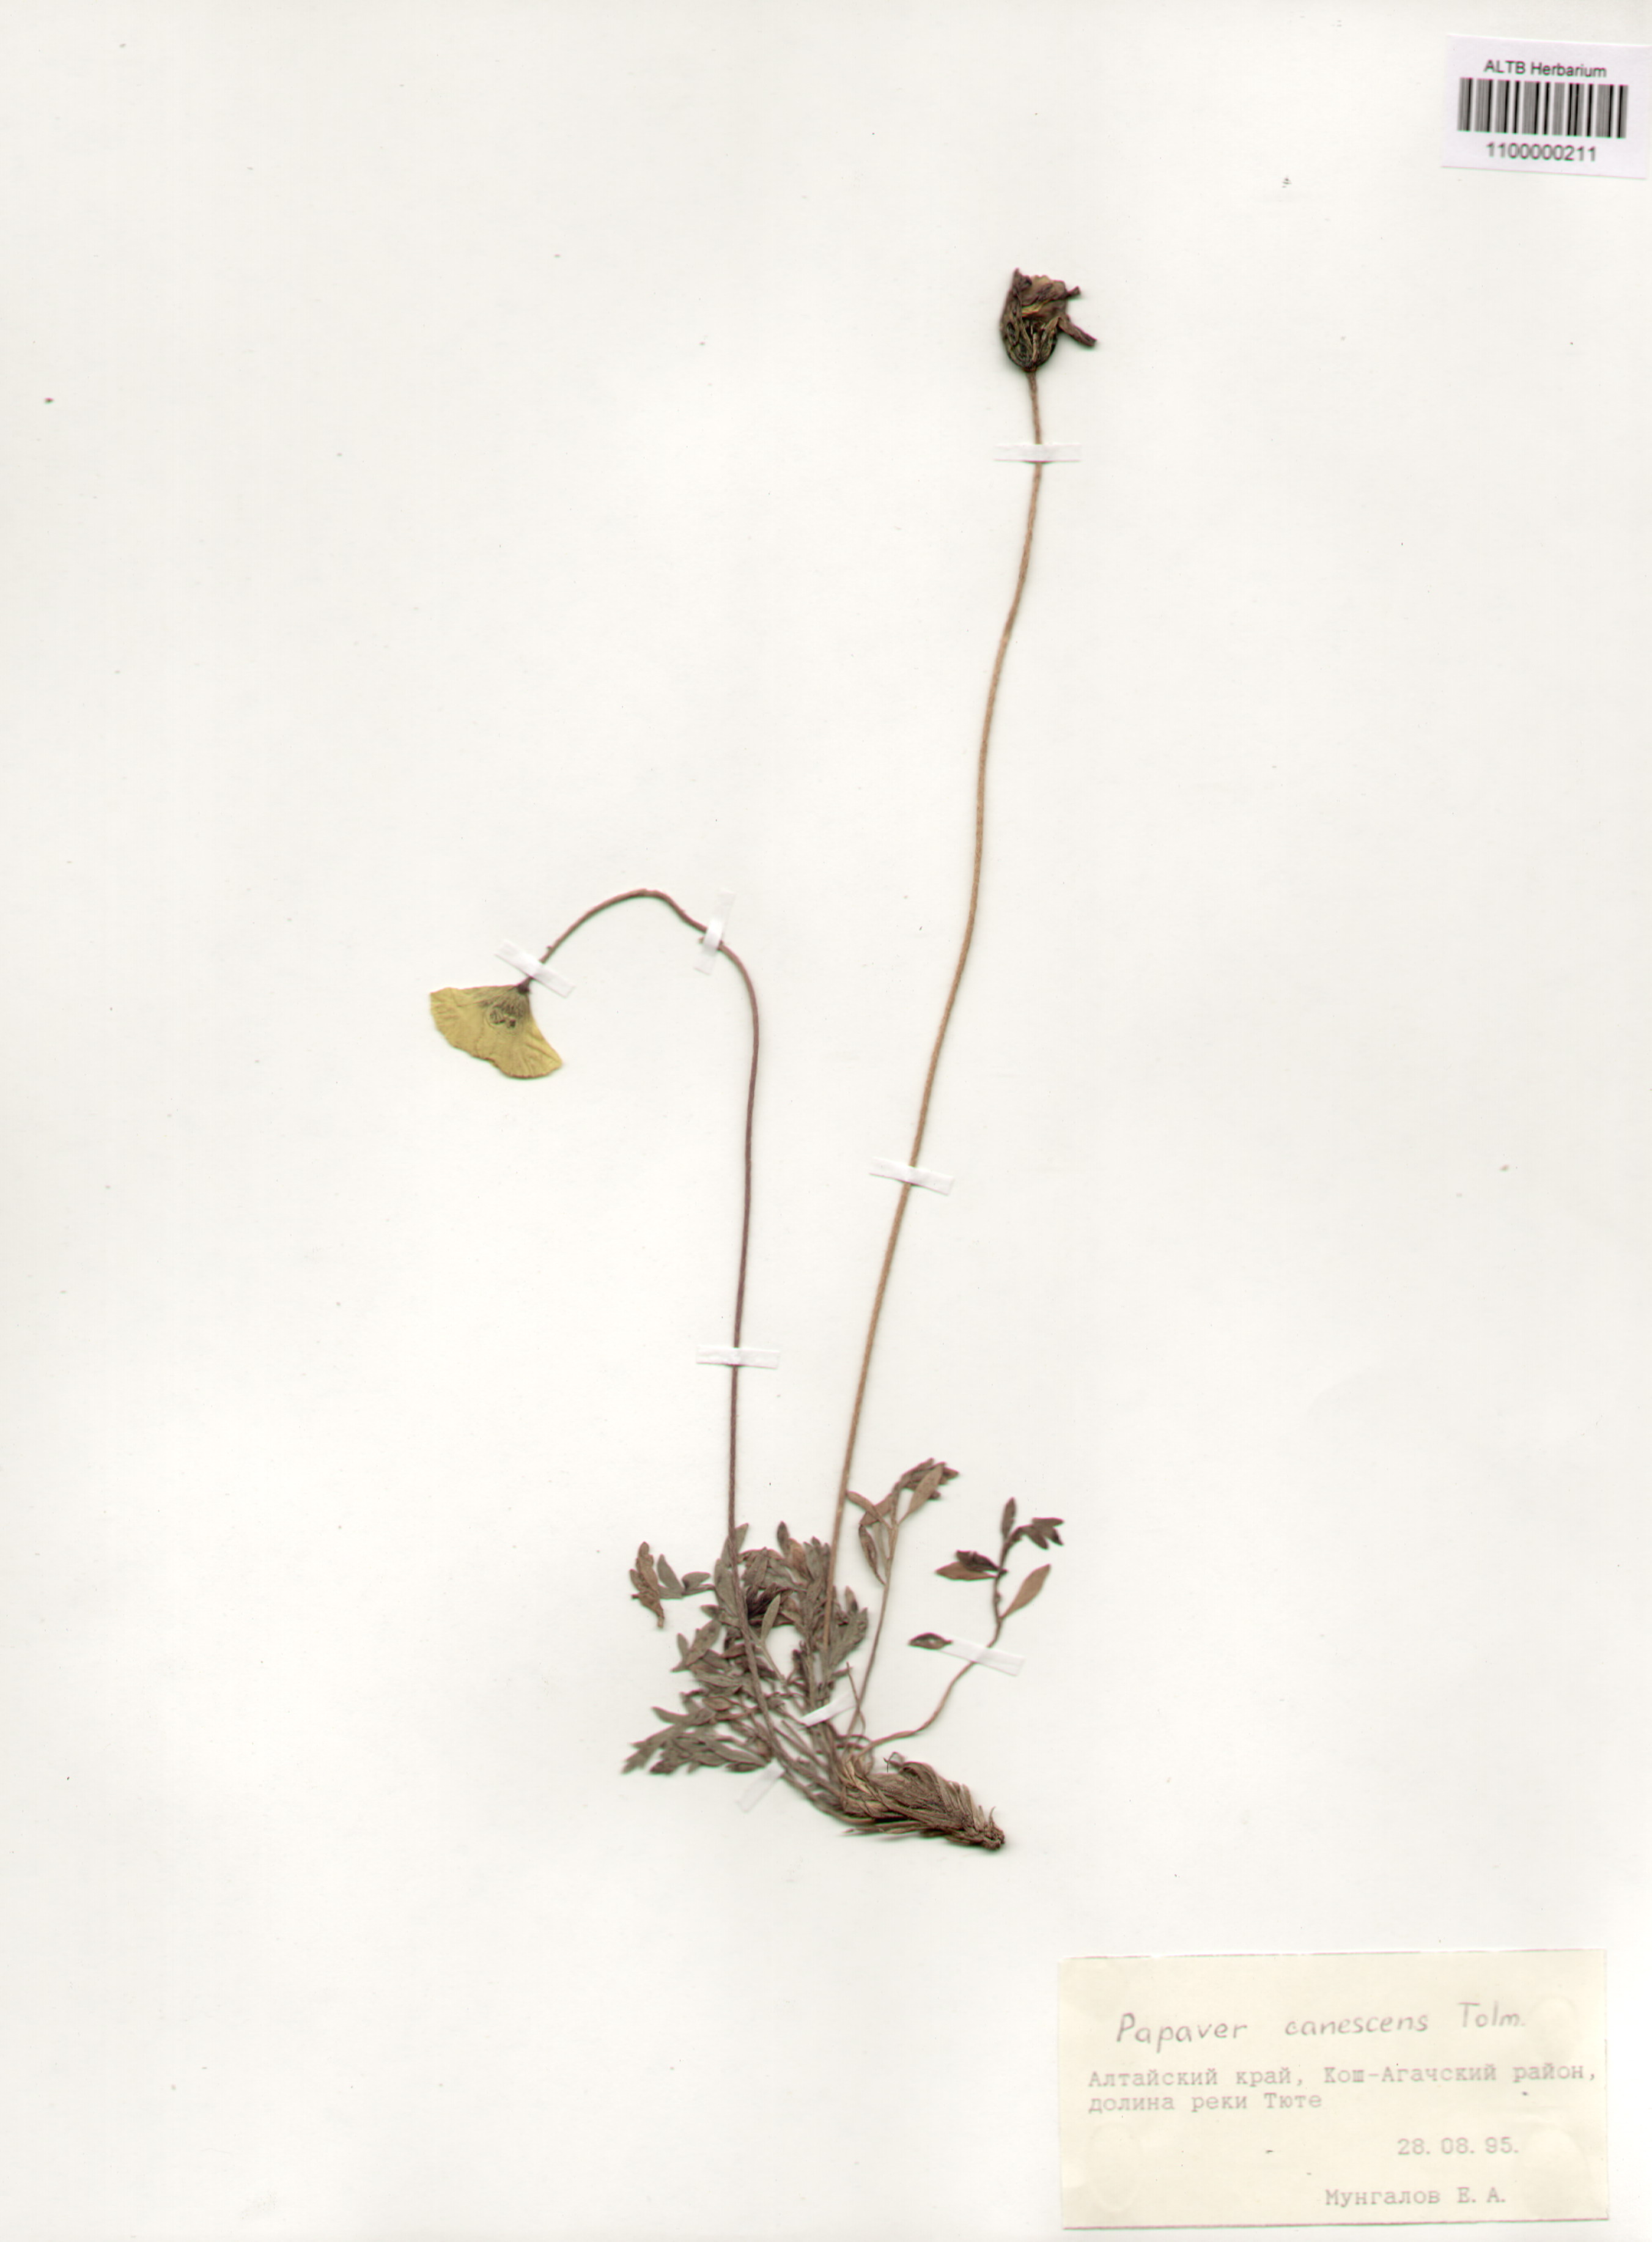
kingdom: Plantae
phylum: Tracheophyta
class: Magnoliopsida
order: Ranunculales
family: Papaveraceae
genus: Papaver
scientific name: Papaver canescens
